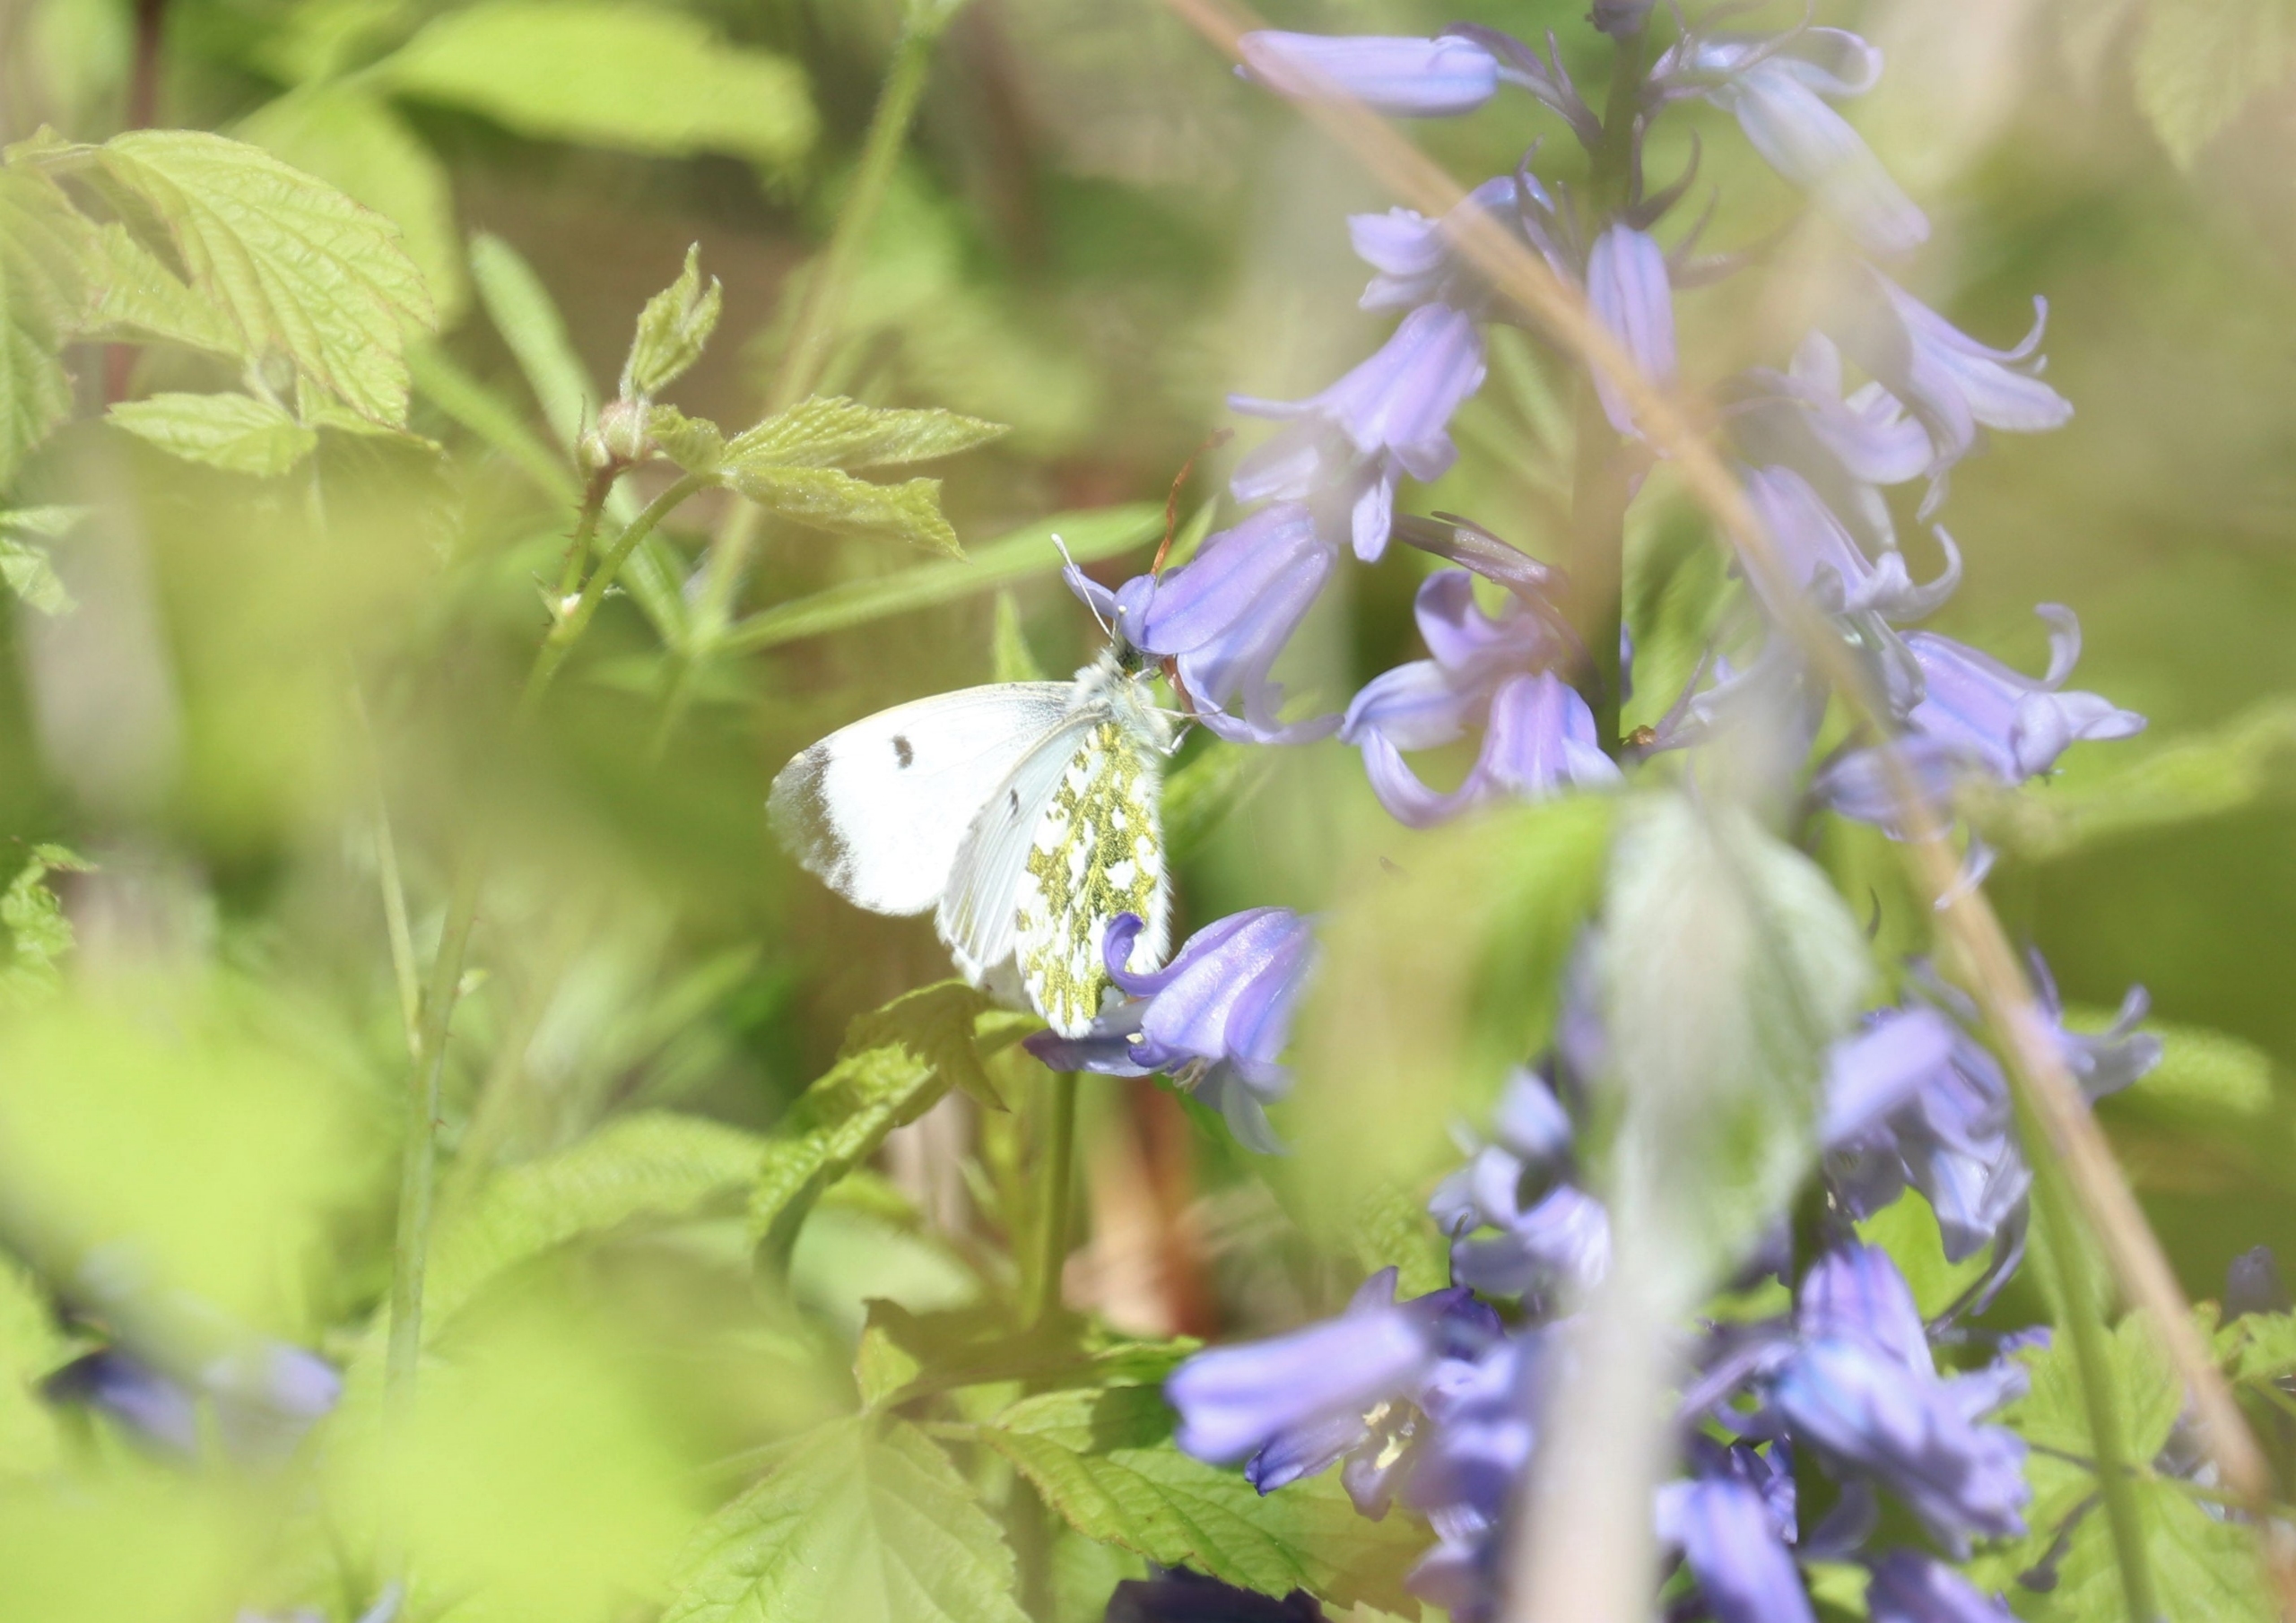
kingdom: Animalia
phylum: Arthropoda
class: Insecta
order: Lepidoptera
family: Pieridae
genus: Anthocharis
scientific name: Anthocharis cardamines
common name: Aurora
